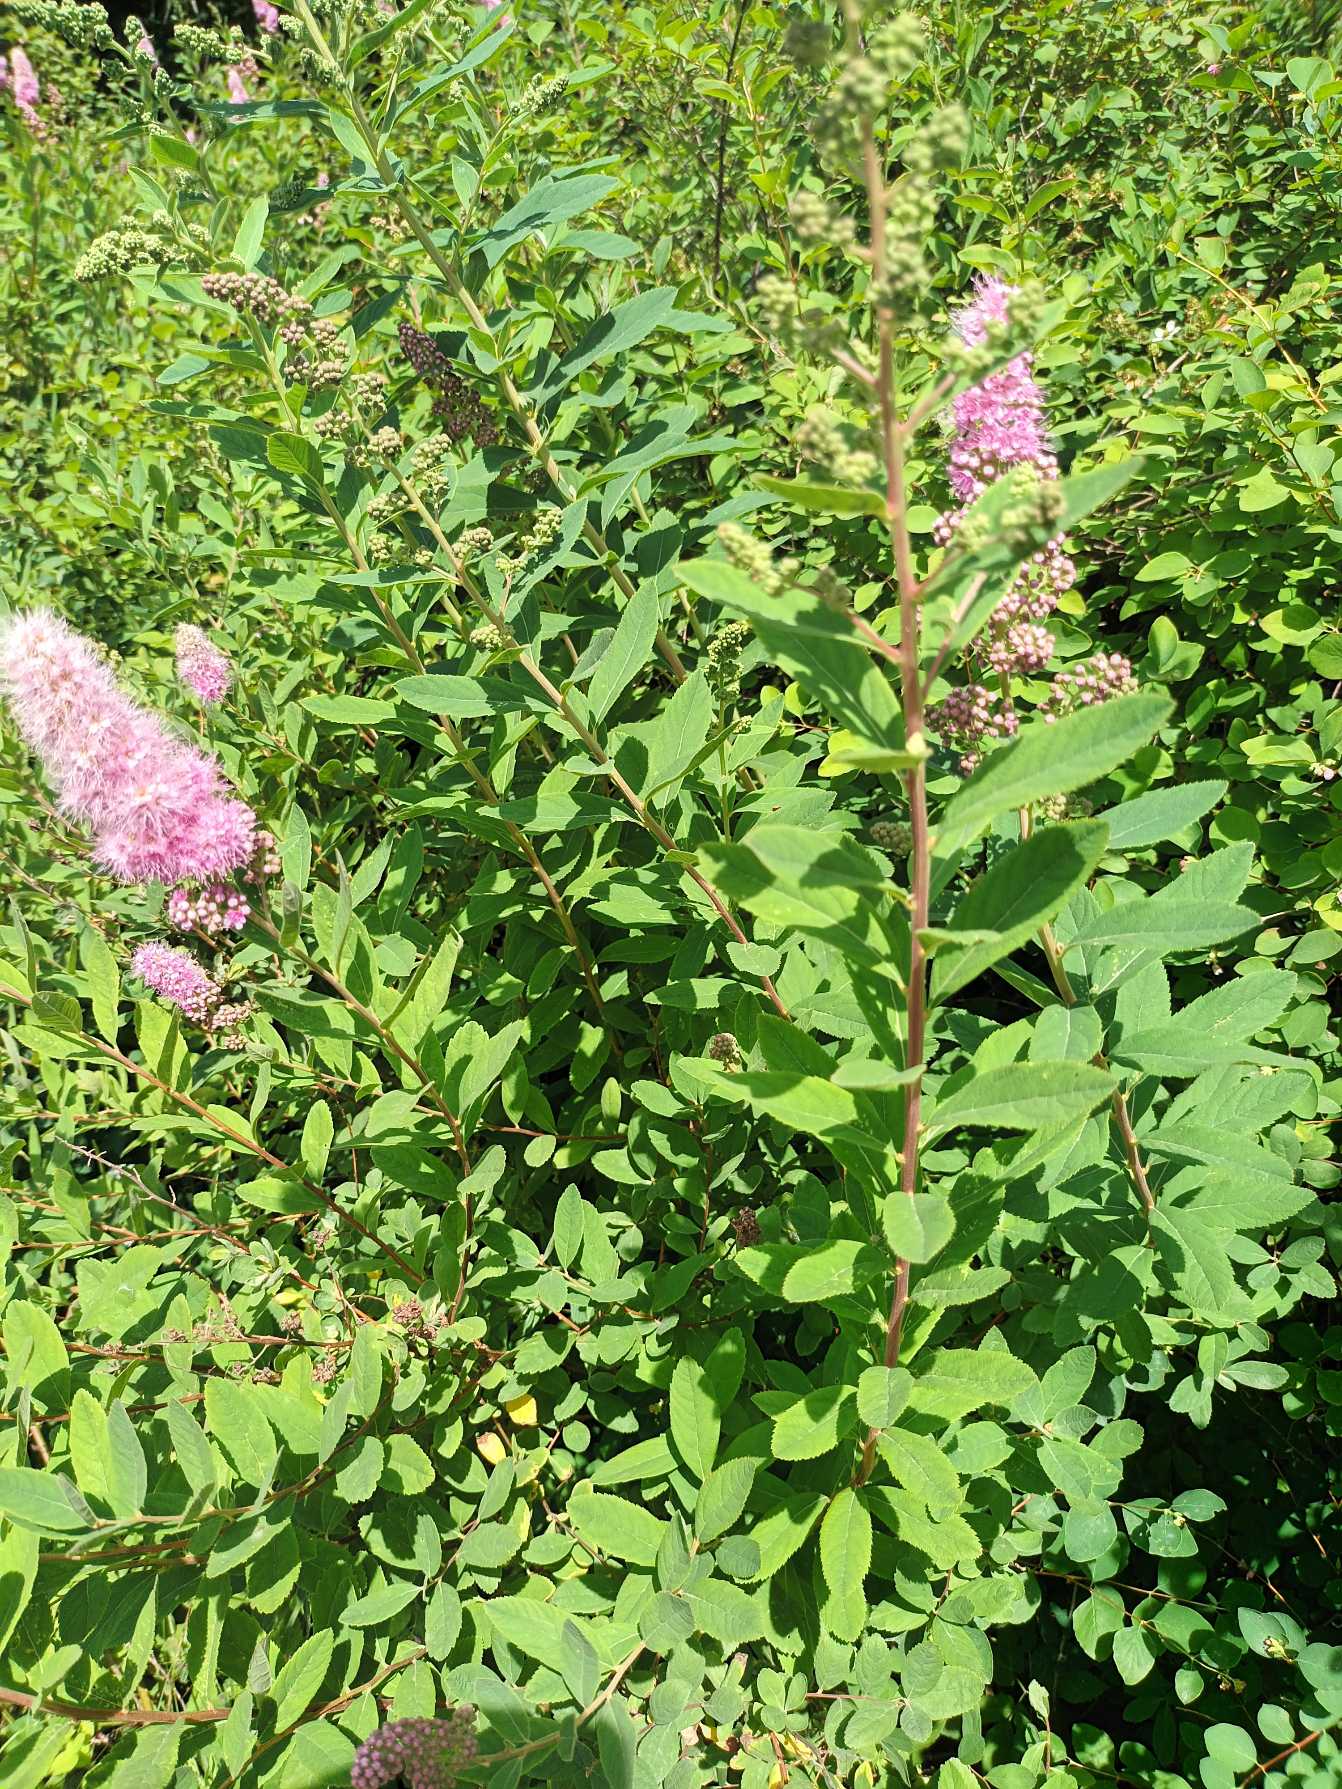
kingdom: Plantae
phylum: Tracheophyta
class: Magnoliopsida
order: Rosales
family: Rosaceae
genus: Spiraea
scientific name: Spiraea billardii
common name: Klase-spiræa
